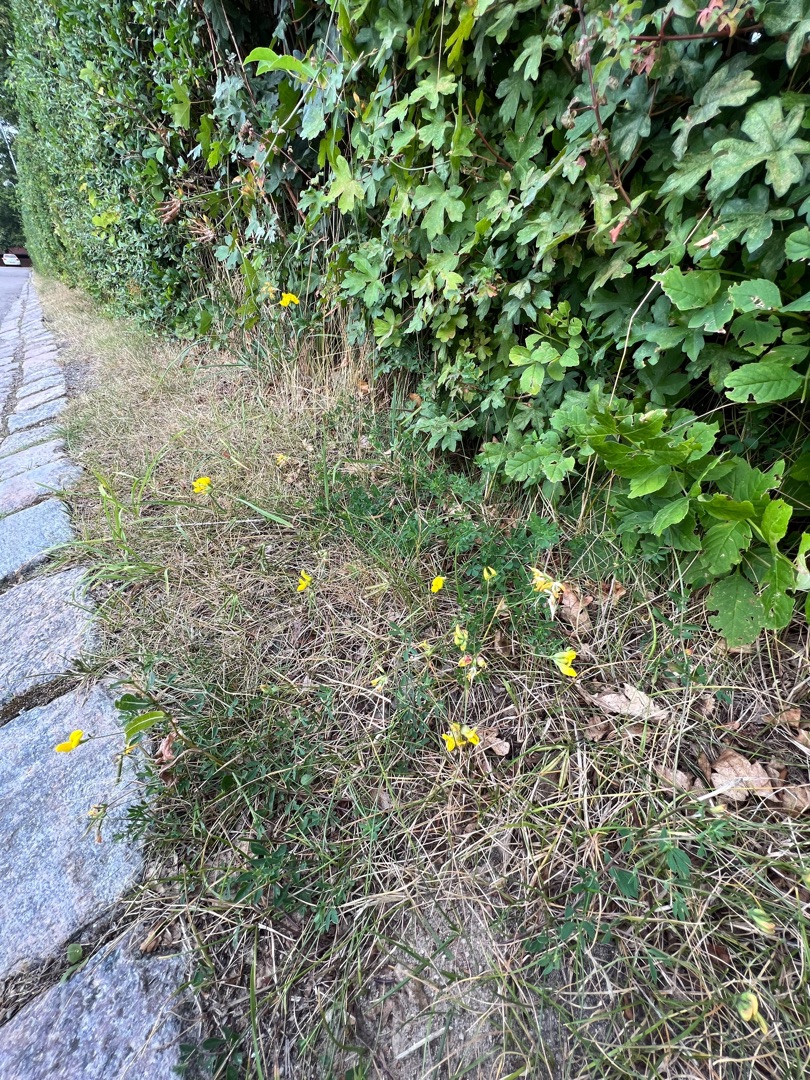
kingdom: Plantae
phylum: Tracheophyta
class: Magnoliopsida
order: Fabales
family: Fabaceae
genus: Lotus
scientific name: Lotus corniculatus
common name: Almindelig kællingetand
